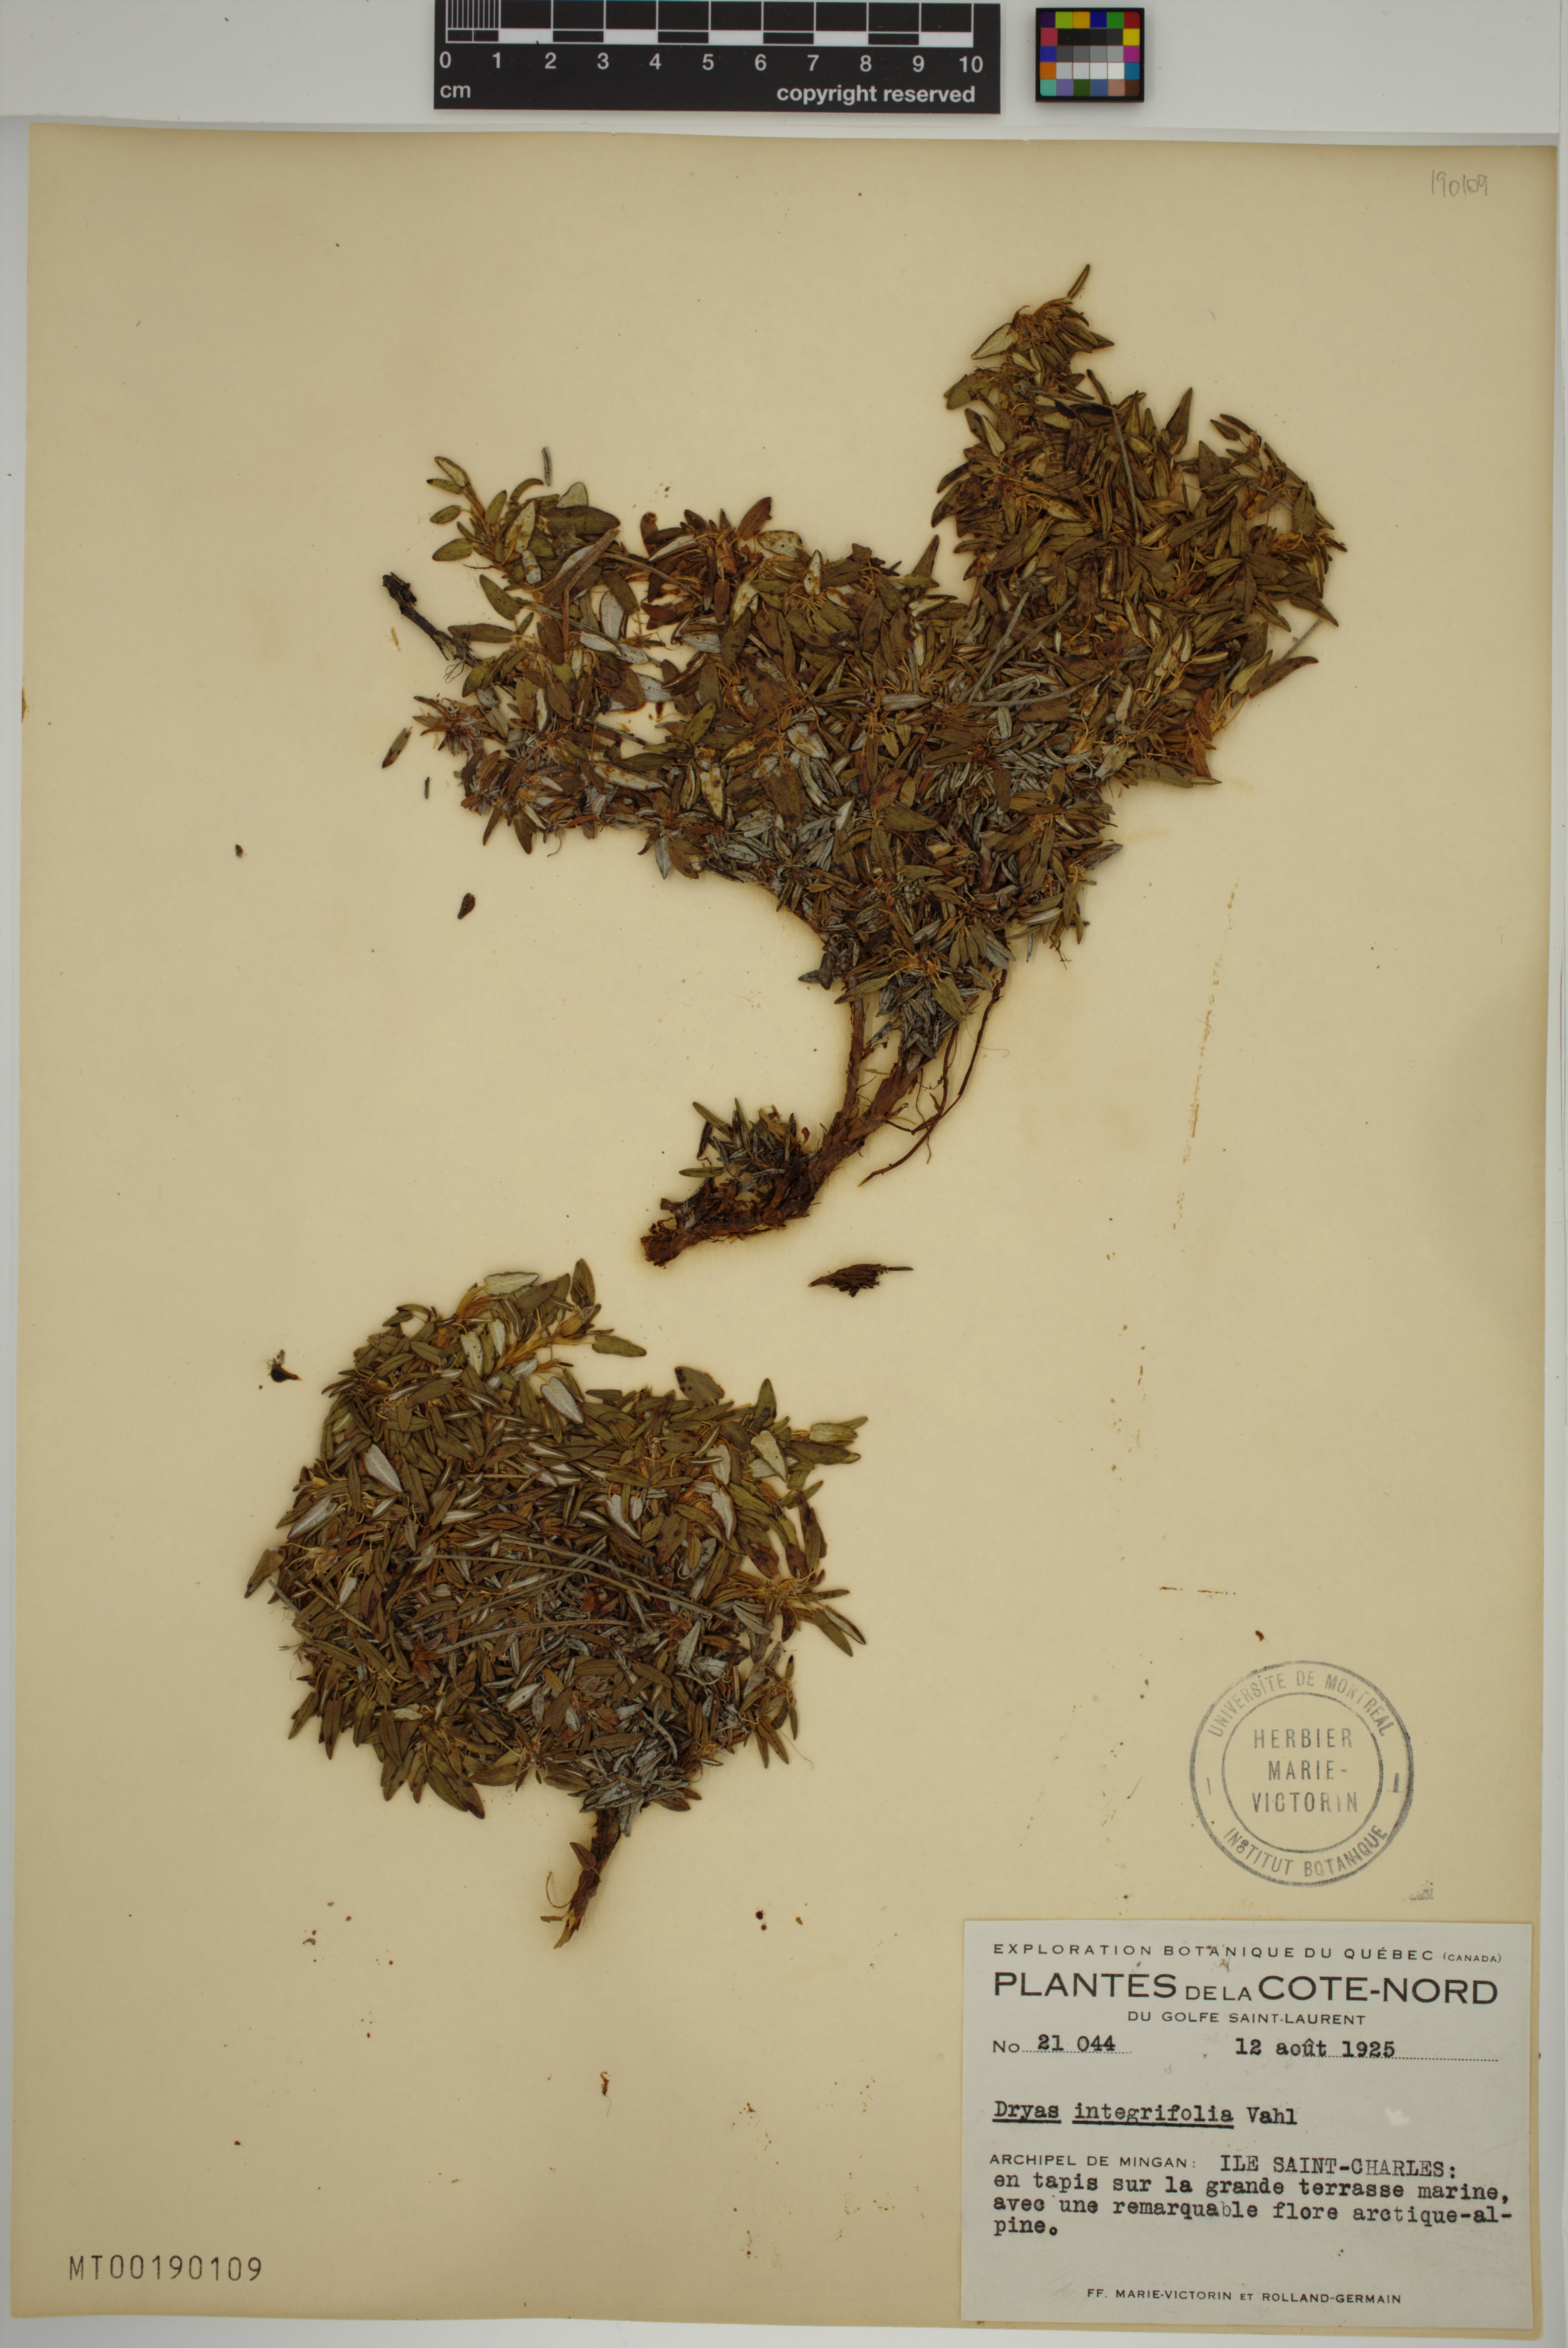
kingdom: Plantae
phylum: Tracheophyta
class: Magnoliopsida
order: Rosales
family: Rosaceae
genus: Dryas
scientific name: Dryas integrifolia
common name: Entire-leaved mountain avens
